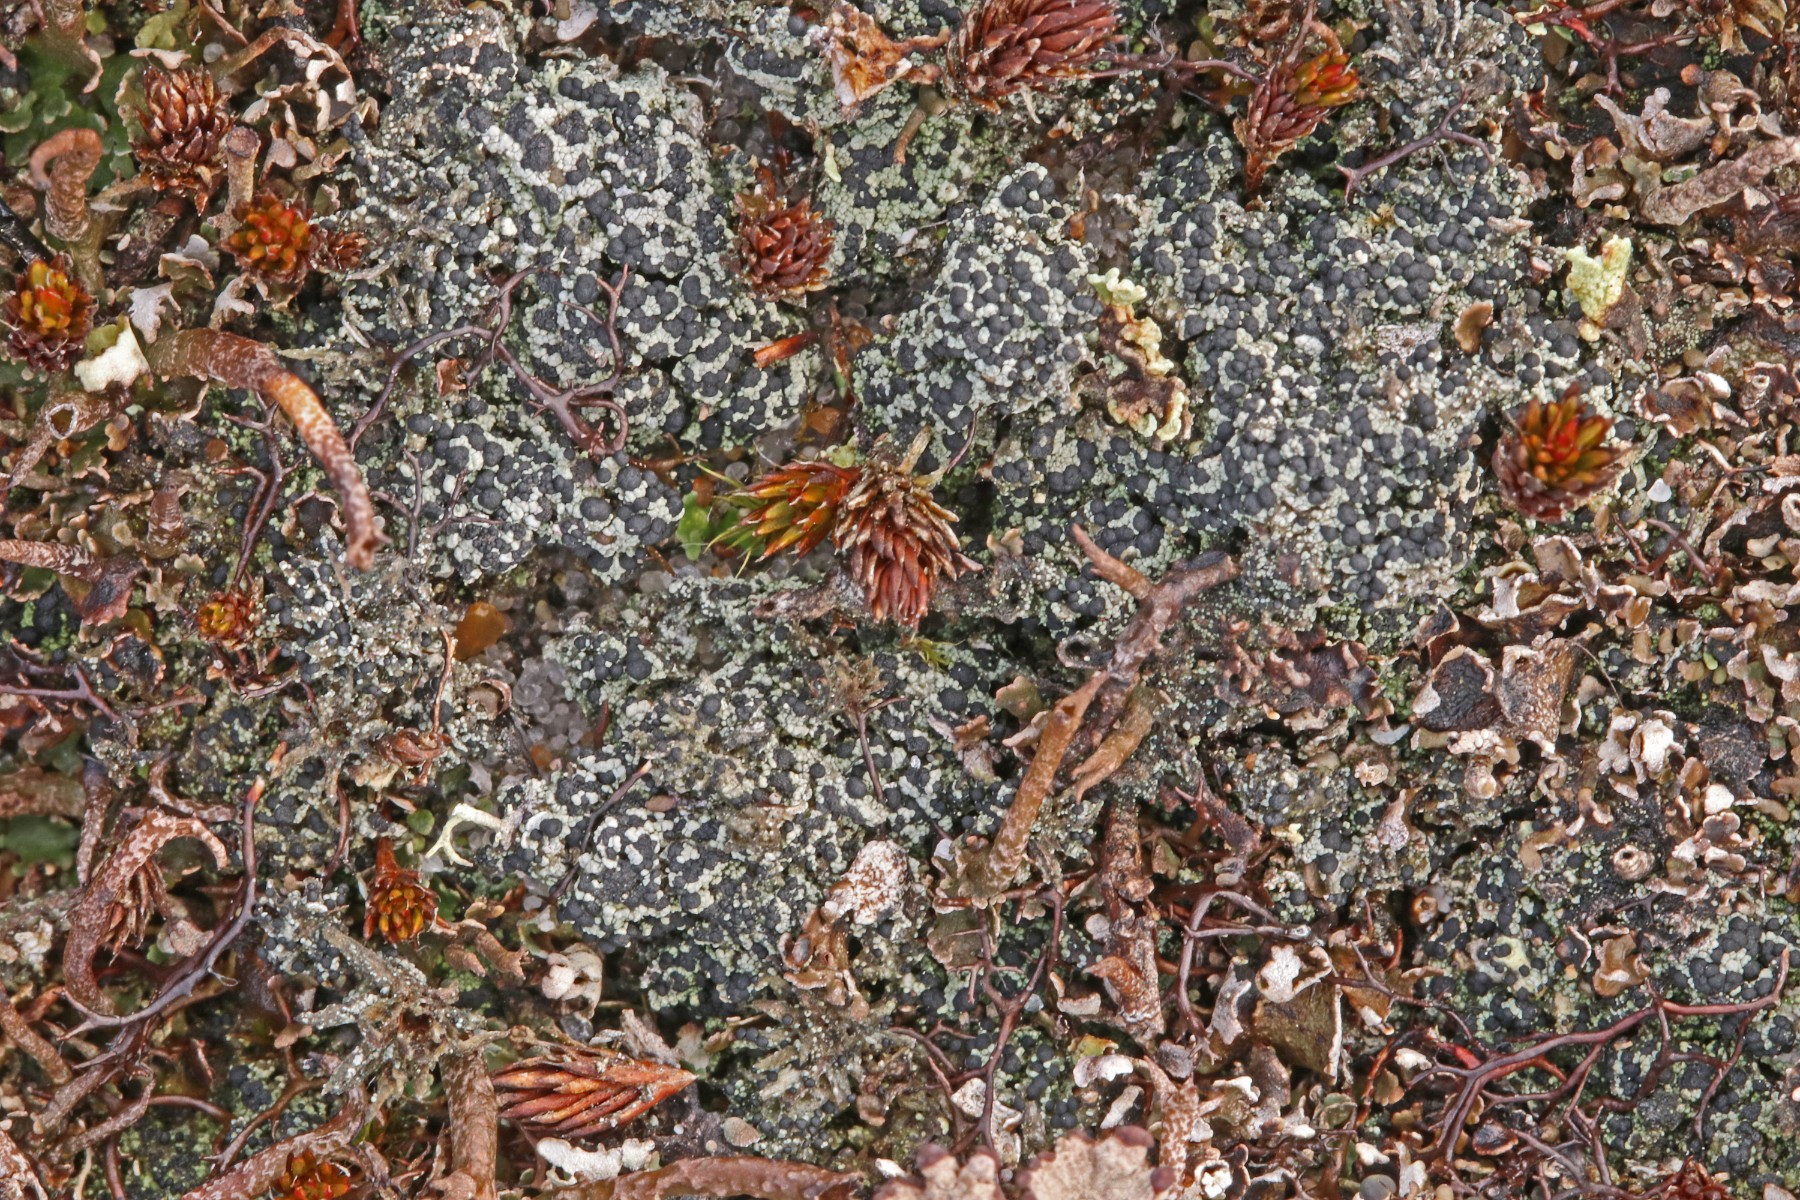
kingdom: Fungi
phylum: Ascomycota
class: Lecanoromycetes
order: Lecanorales
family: Byssolomataceae
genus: Micarea
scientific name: Micarea lignaria
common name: tørve-knaplav
